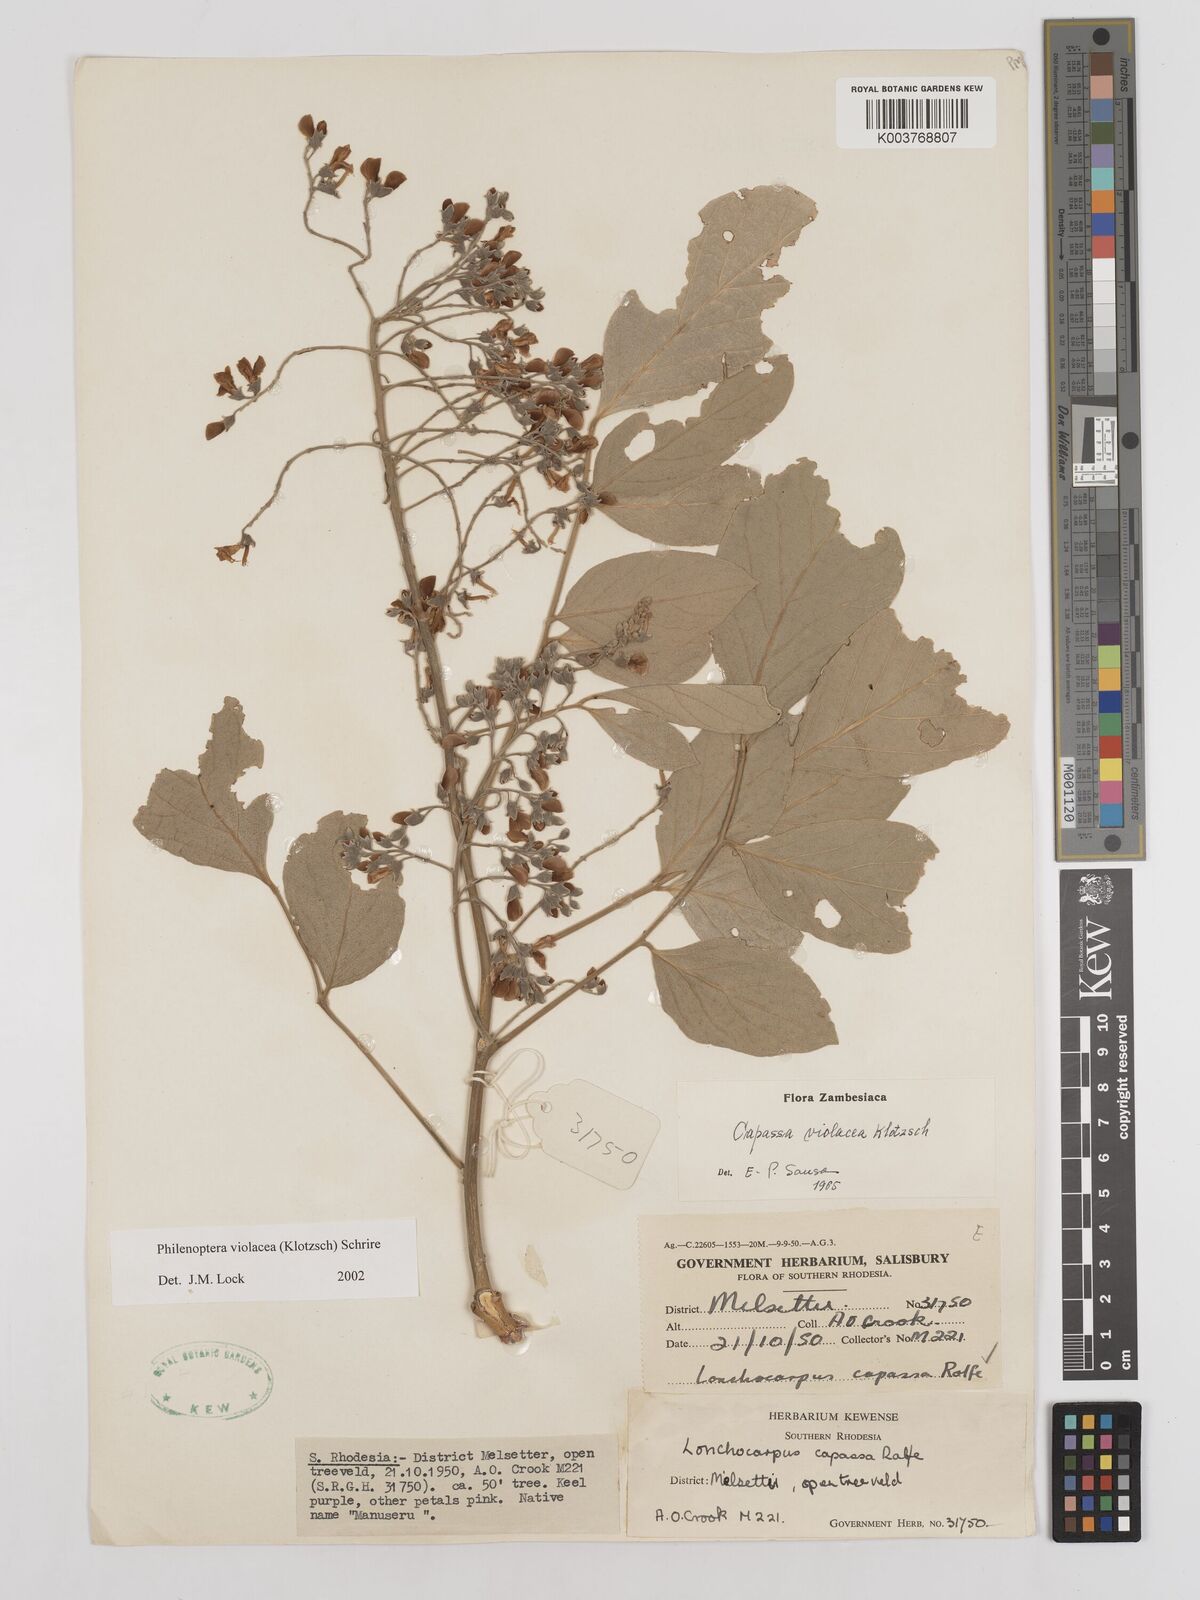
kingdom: Plantae
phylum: Tracheophyta
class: Magnoliopsida
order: Fabales
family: Fabaceae
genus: Philenoptera
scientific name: Philenoptera violacea
